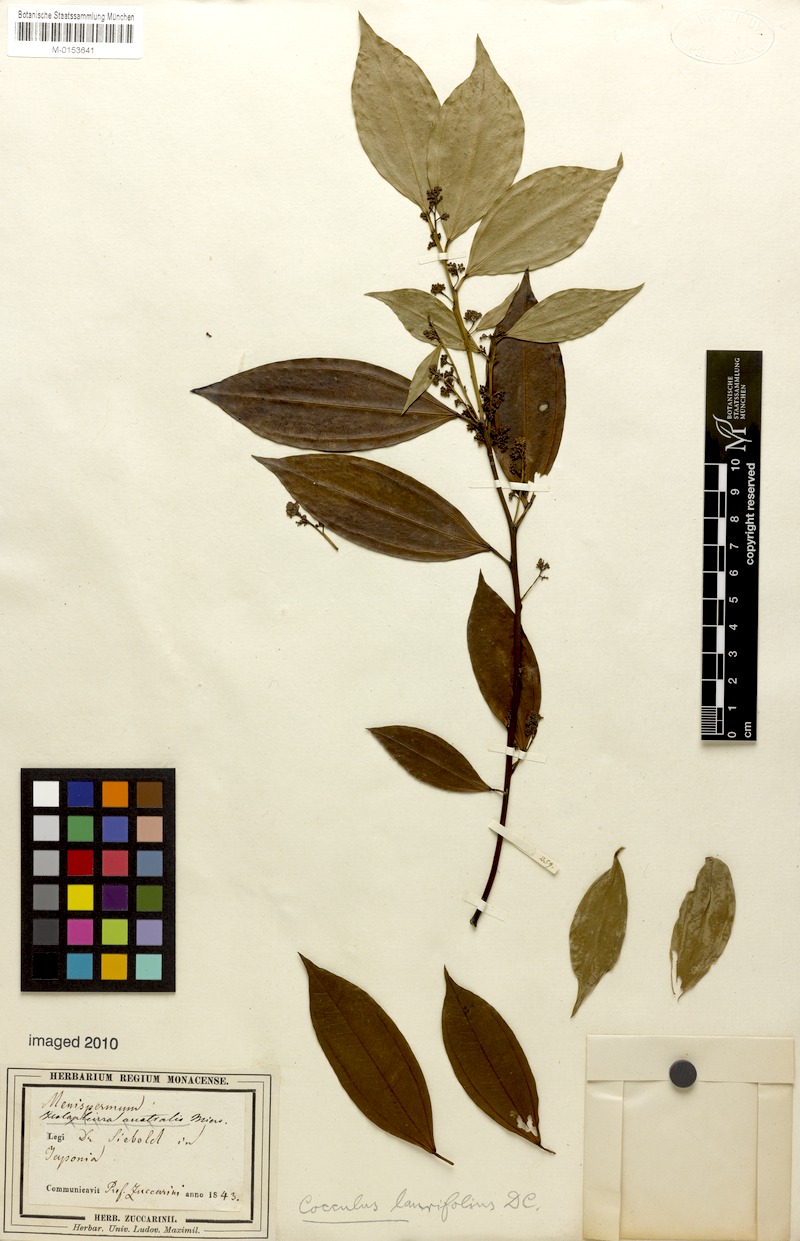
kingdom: Plantae
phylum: Tracheophyta
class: Magnoliopsida
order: Ranunculales
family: Menispermaceae
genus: Cocculus
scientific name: Cocculus laurifolius
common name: Laurel-leaf snailseed
